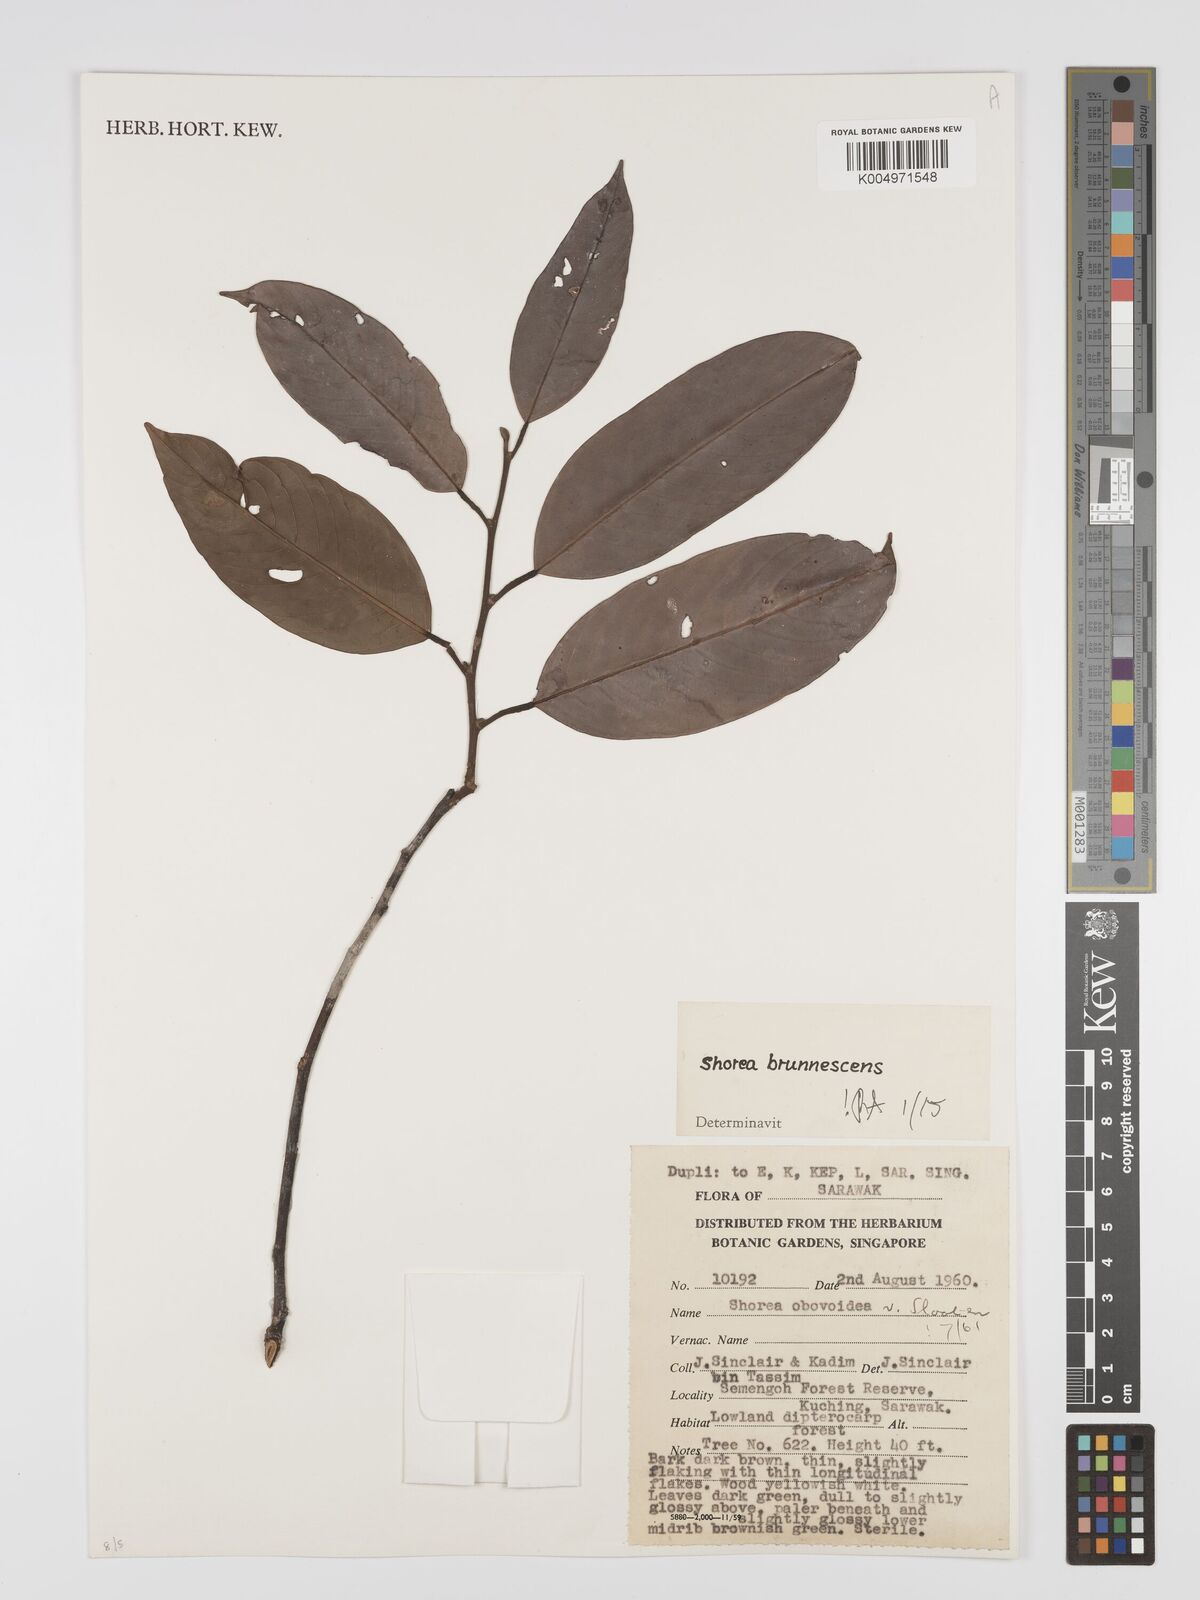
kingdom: Plantae
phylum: Tracheophyta
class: Magnoliopsida
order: Malvales
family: Dipterocarpaceae
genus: Shorea
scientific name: Shorea brunnescens
